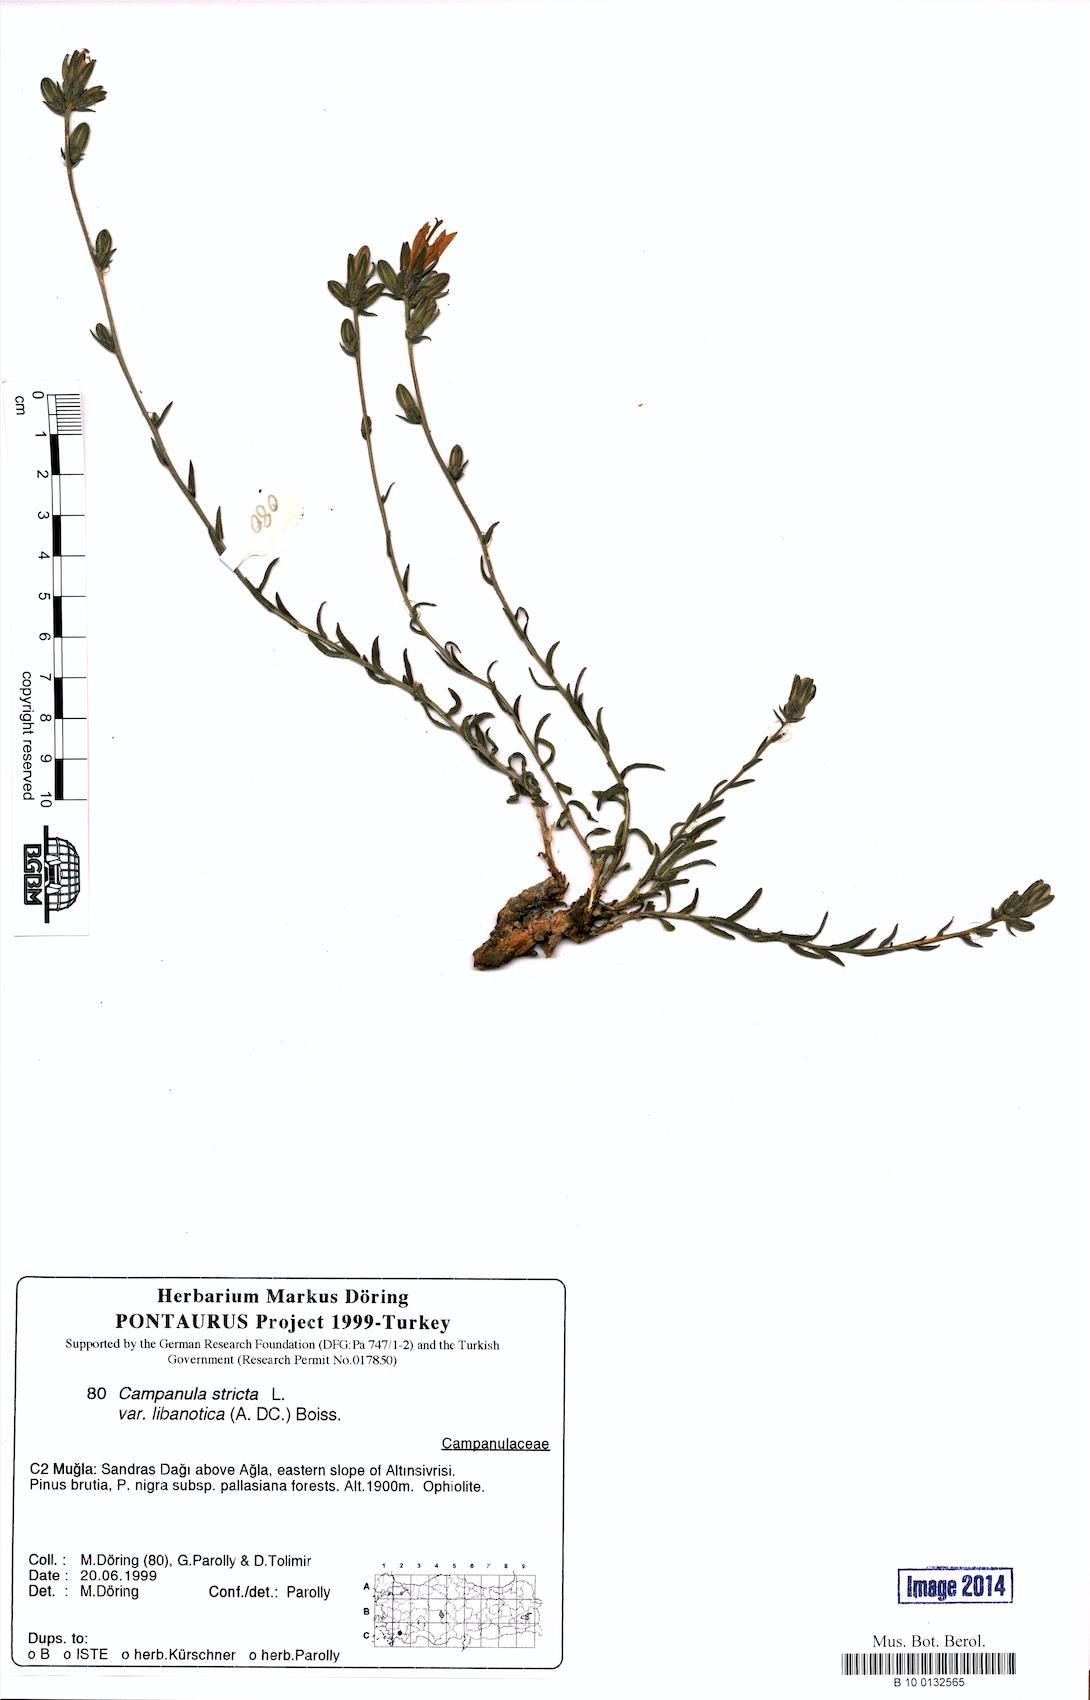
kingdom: Plantae
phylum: Tracheophyta
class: Magnoliopsida
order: Asterales
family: Campanulaceae
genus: Campanula
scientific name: Campanula stricta
